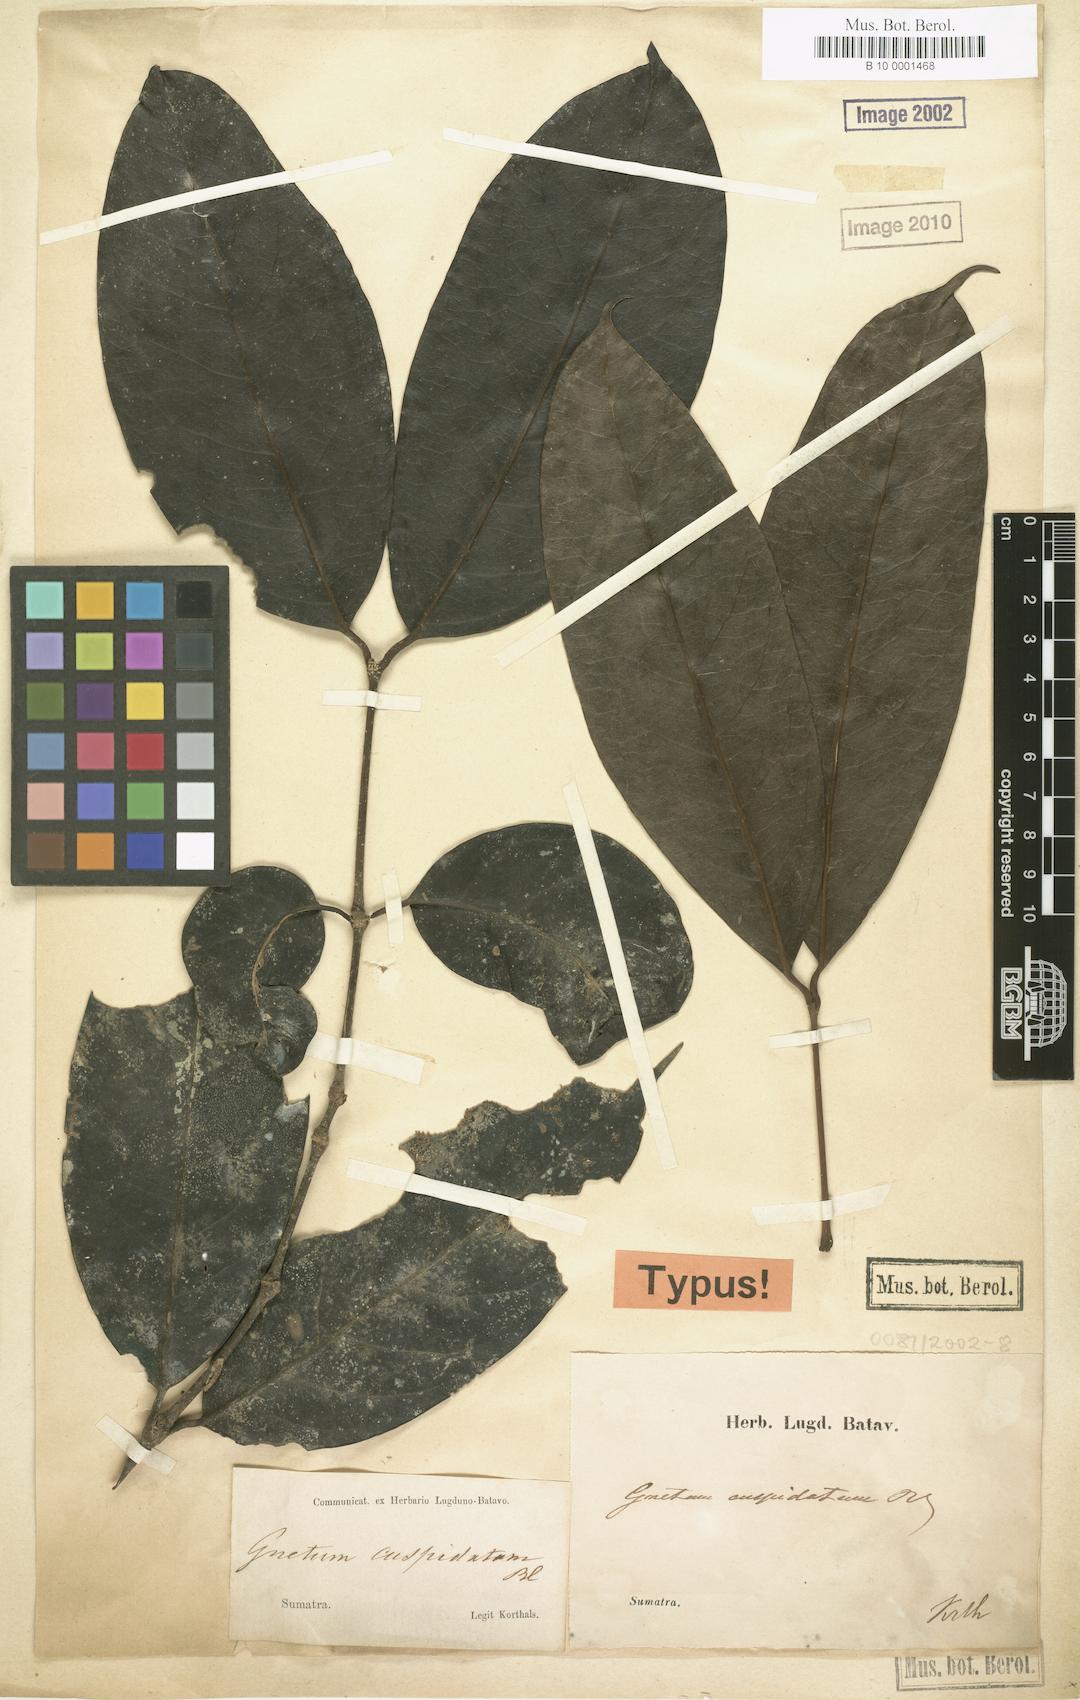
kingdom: Plantae
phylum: Tracheophyta
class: Gnetopsida
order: Gnetales
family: Gnetaceae
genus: Gnetum
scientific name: Gnetum cuspidatum
